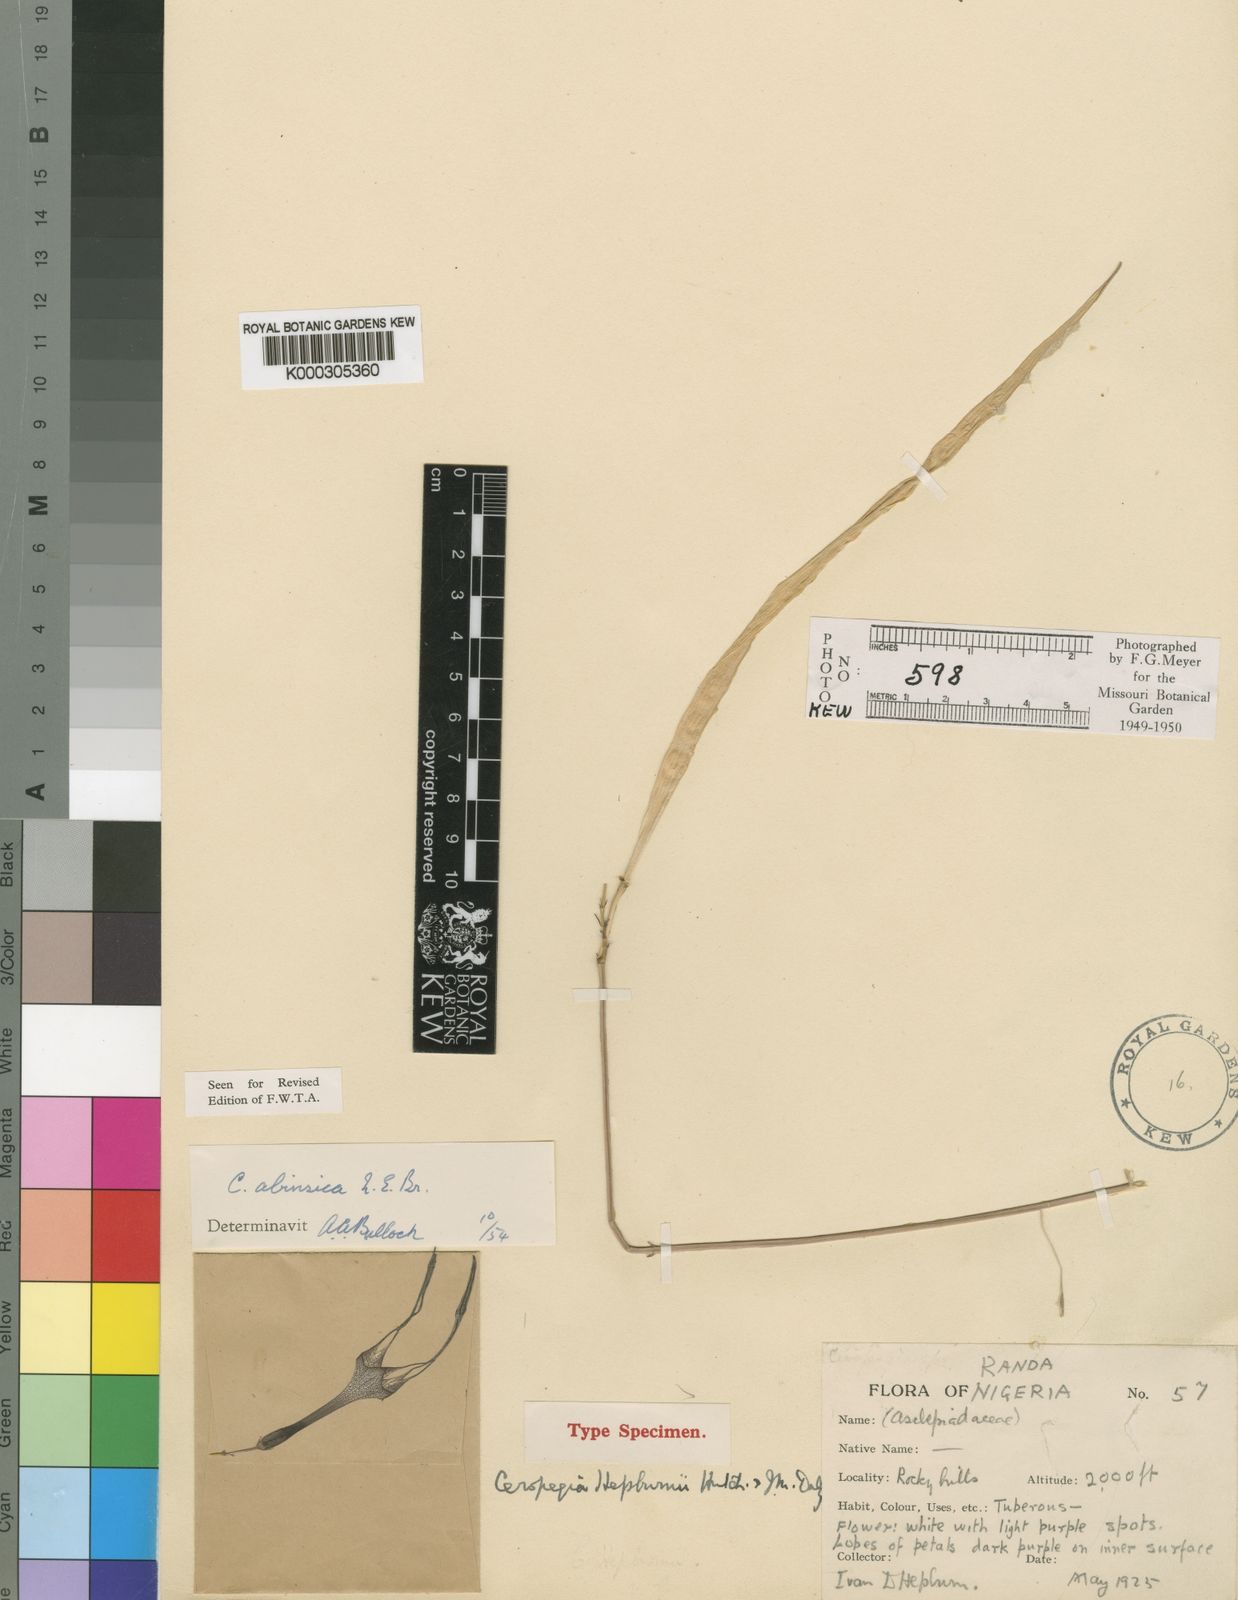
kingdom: Plantae
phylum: Tracheophyta
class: Magnoliopsida
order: Gentianales
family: Apocynaceae
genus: Ceropegia
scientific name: Ceropegia campanulata
